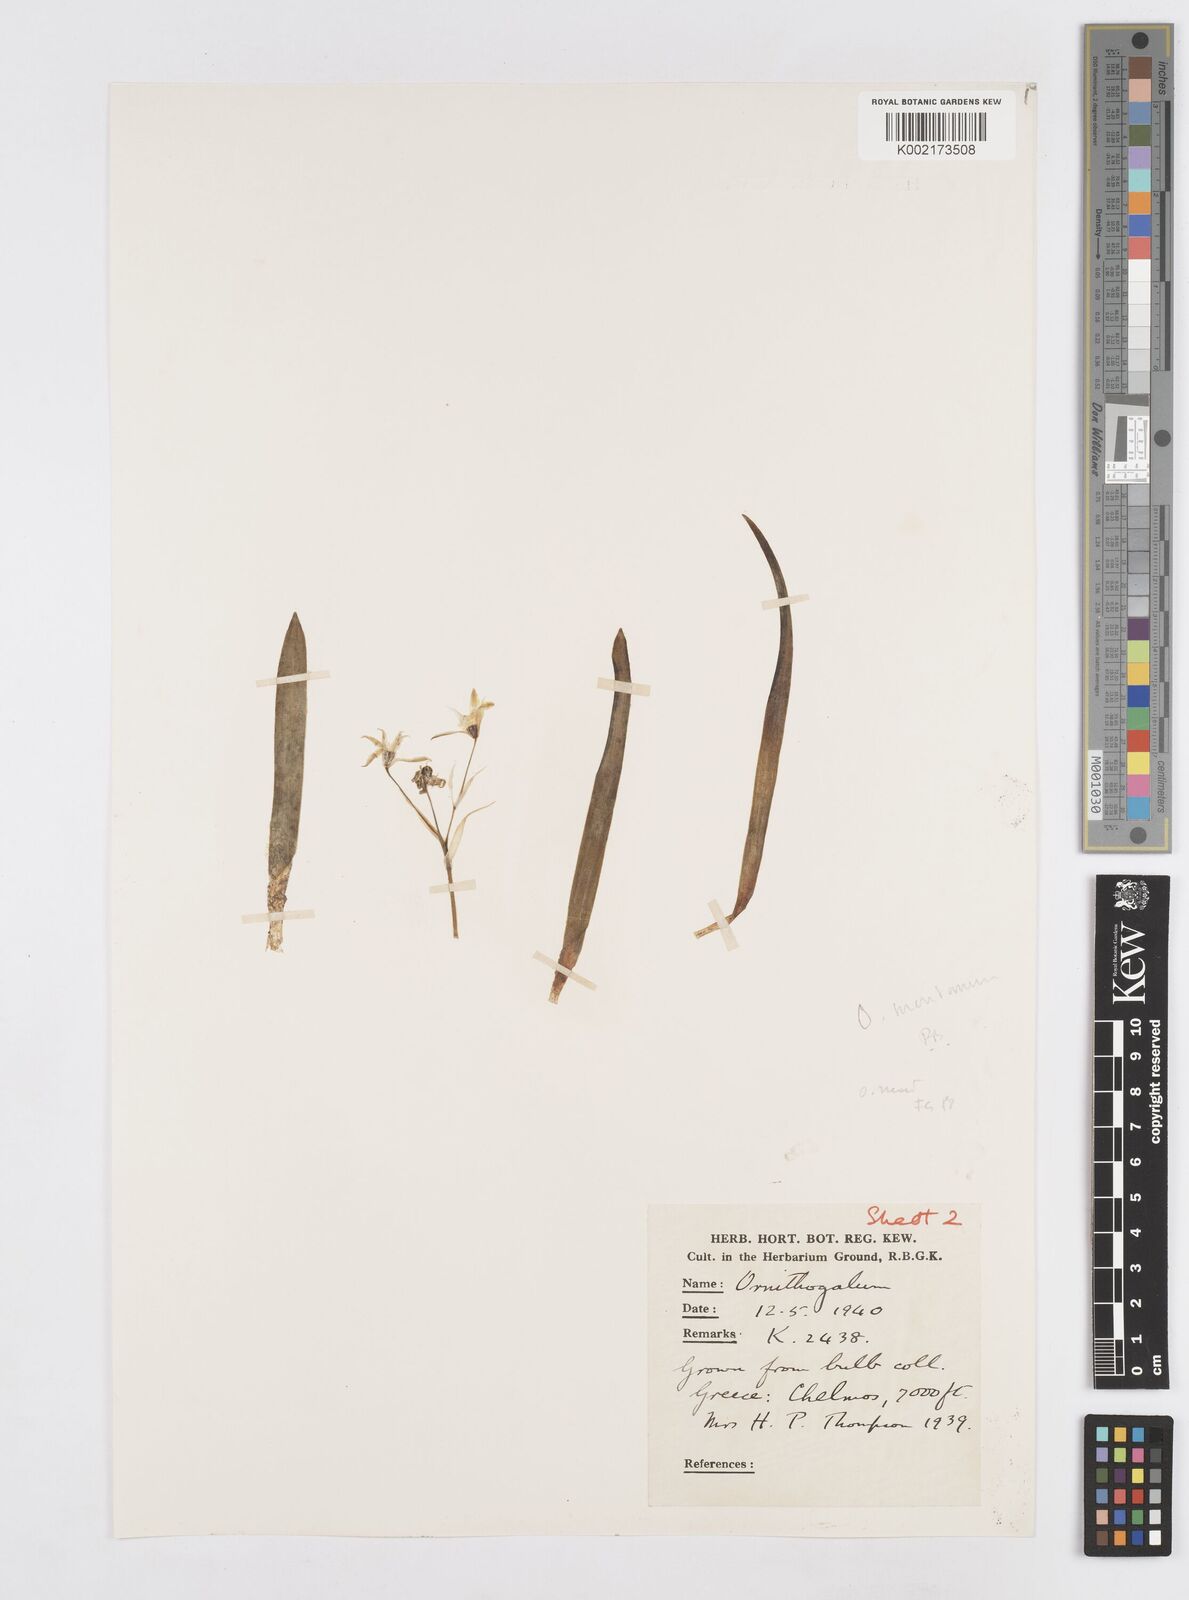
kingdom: Plantae
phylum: Tracheophyta
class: Liliopsida
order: Asparagales
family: Asparagaceae
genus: Ornithogalum
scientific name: Ornithogalum montanum
